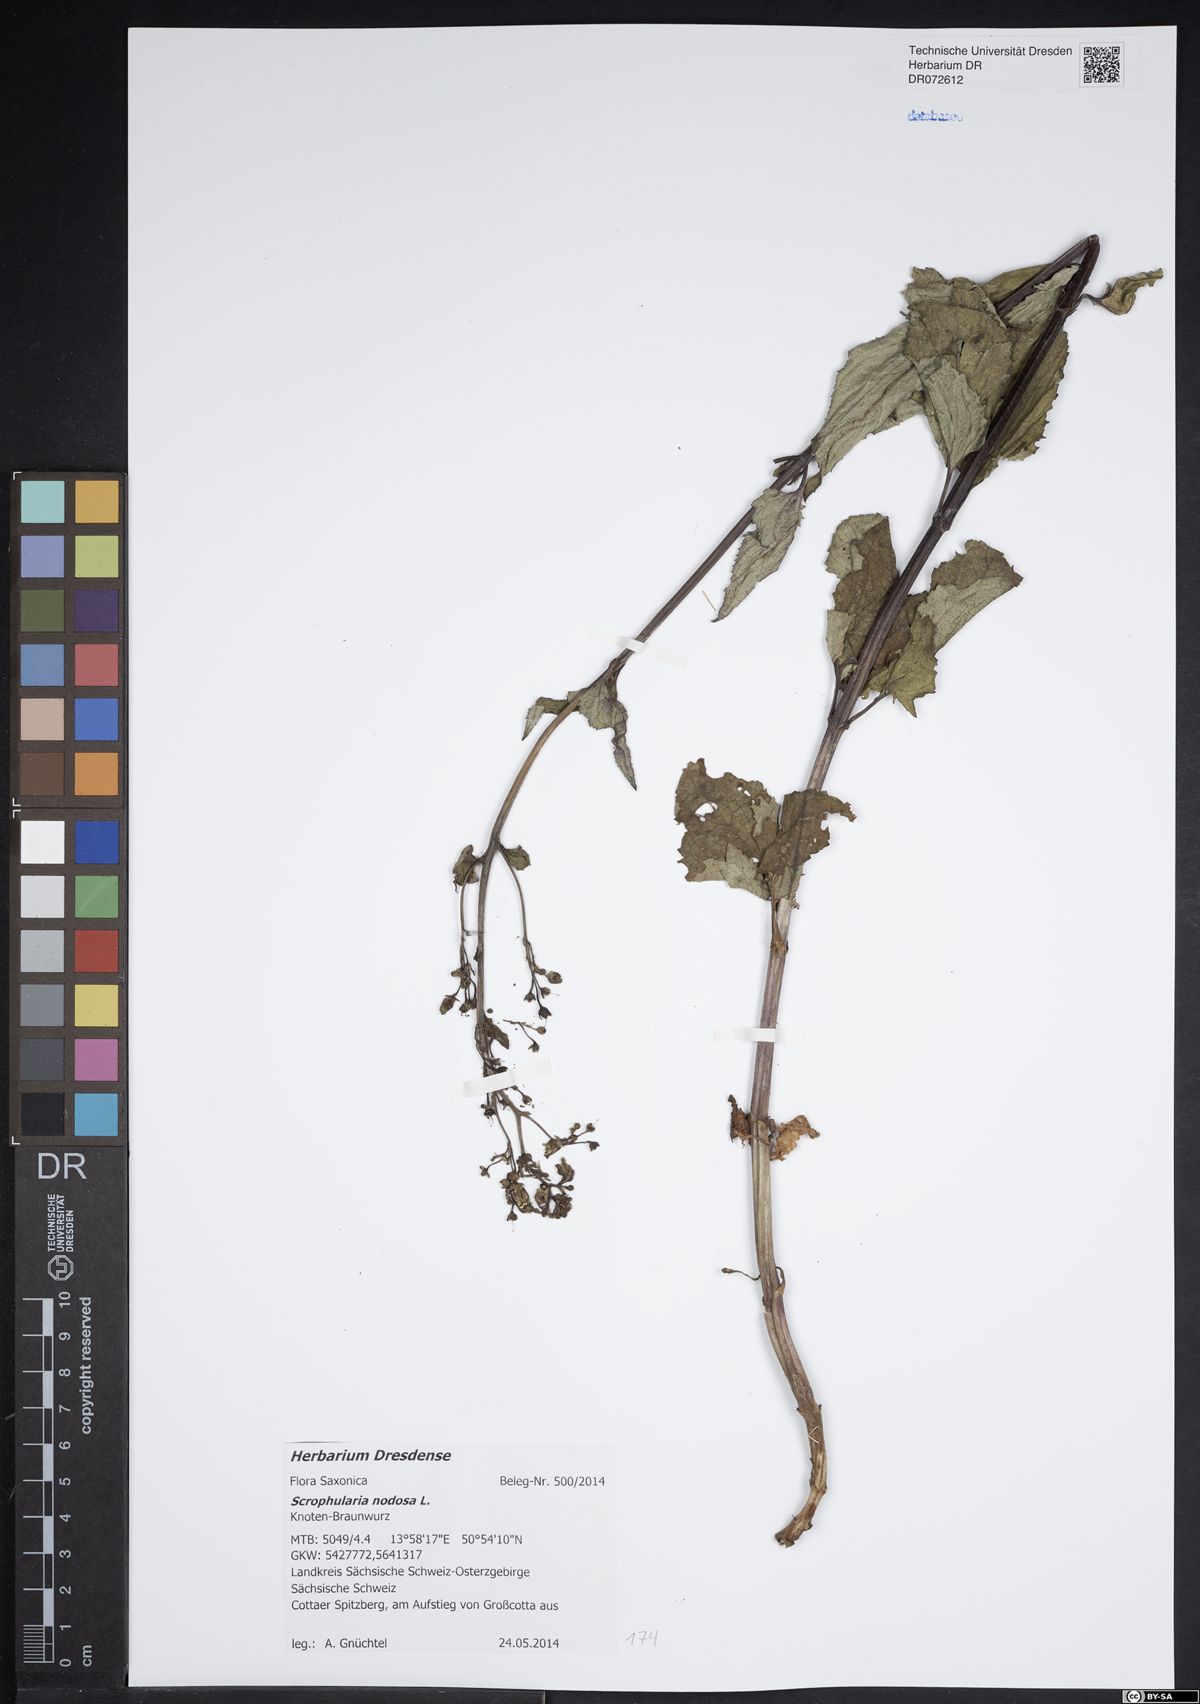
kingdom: Plantae
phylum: Tracheophyta
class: Magnoliopsida
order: Lamiales
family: Scrophulariaceae
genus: Scrophularia
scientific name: Scrophularia nodosa
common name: Common figwort
